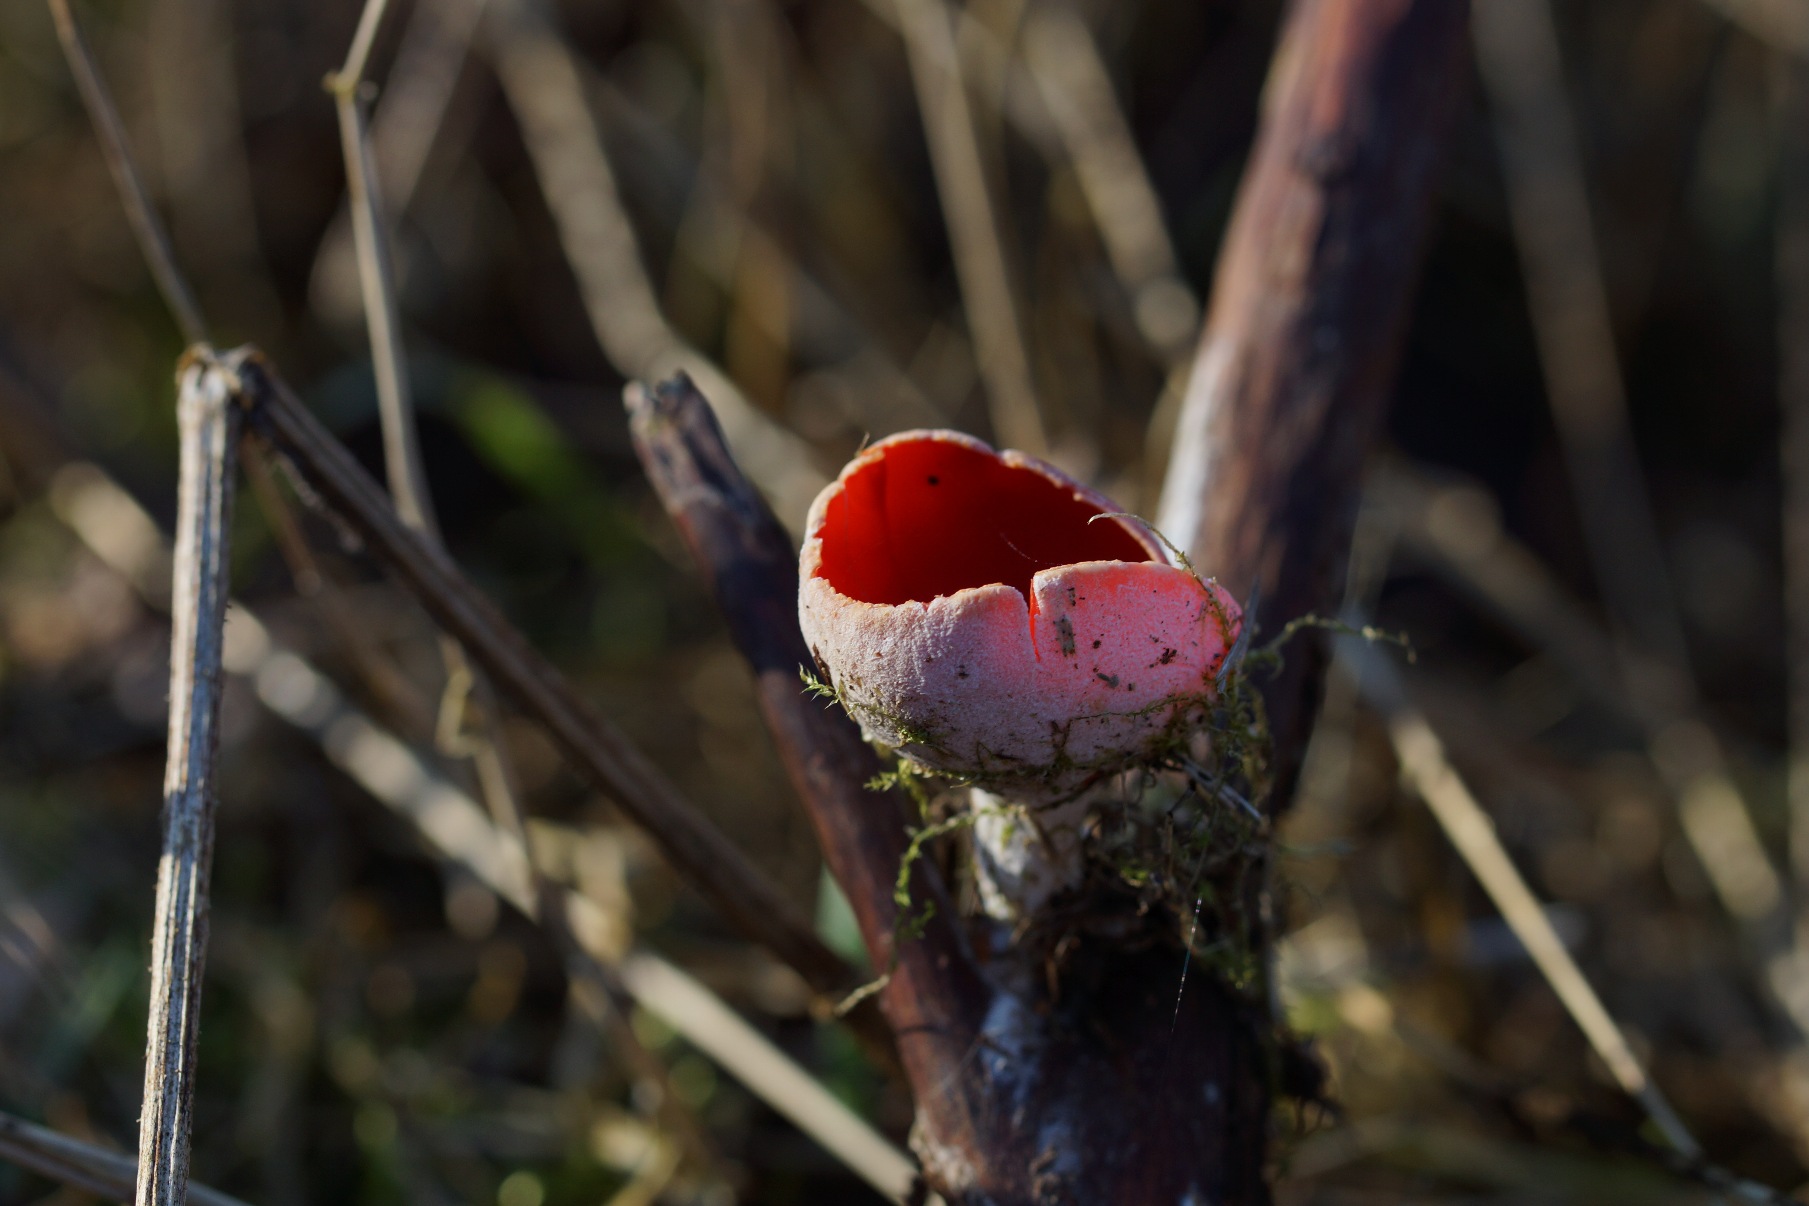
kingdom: Fungi
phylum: Ascomycota
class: Pezizomycetes
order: Pezizales
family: Sarcoscyphaceae
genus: Sarcoscypha
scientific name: Sarcoscypha austriaca
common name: Krølhåret pragtbæger
